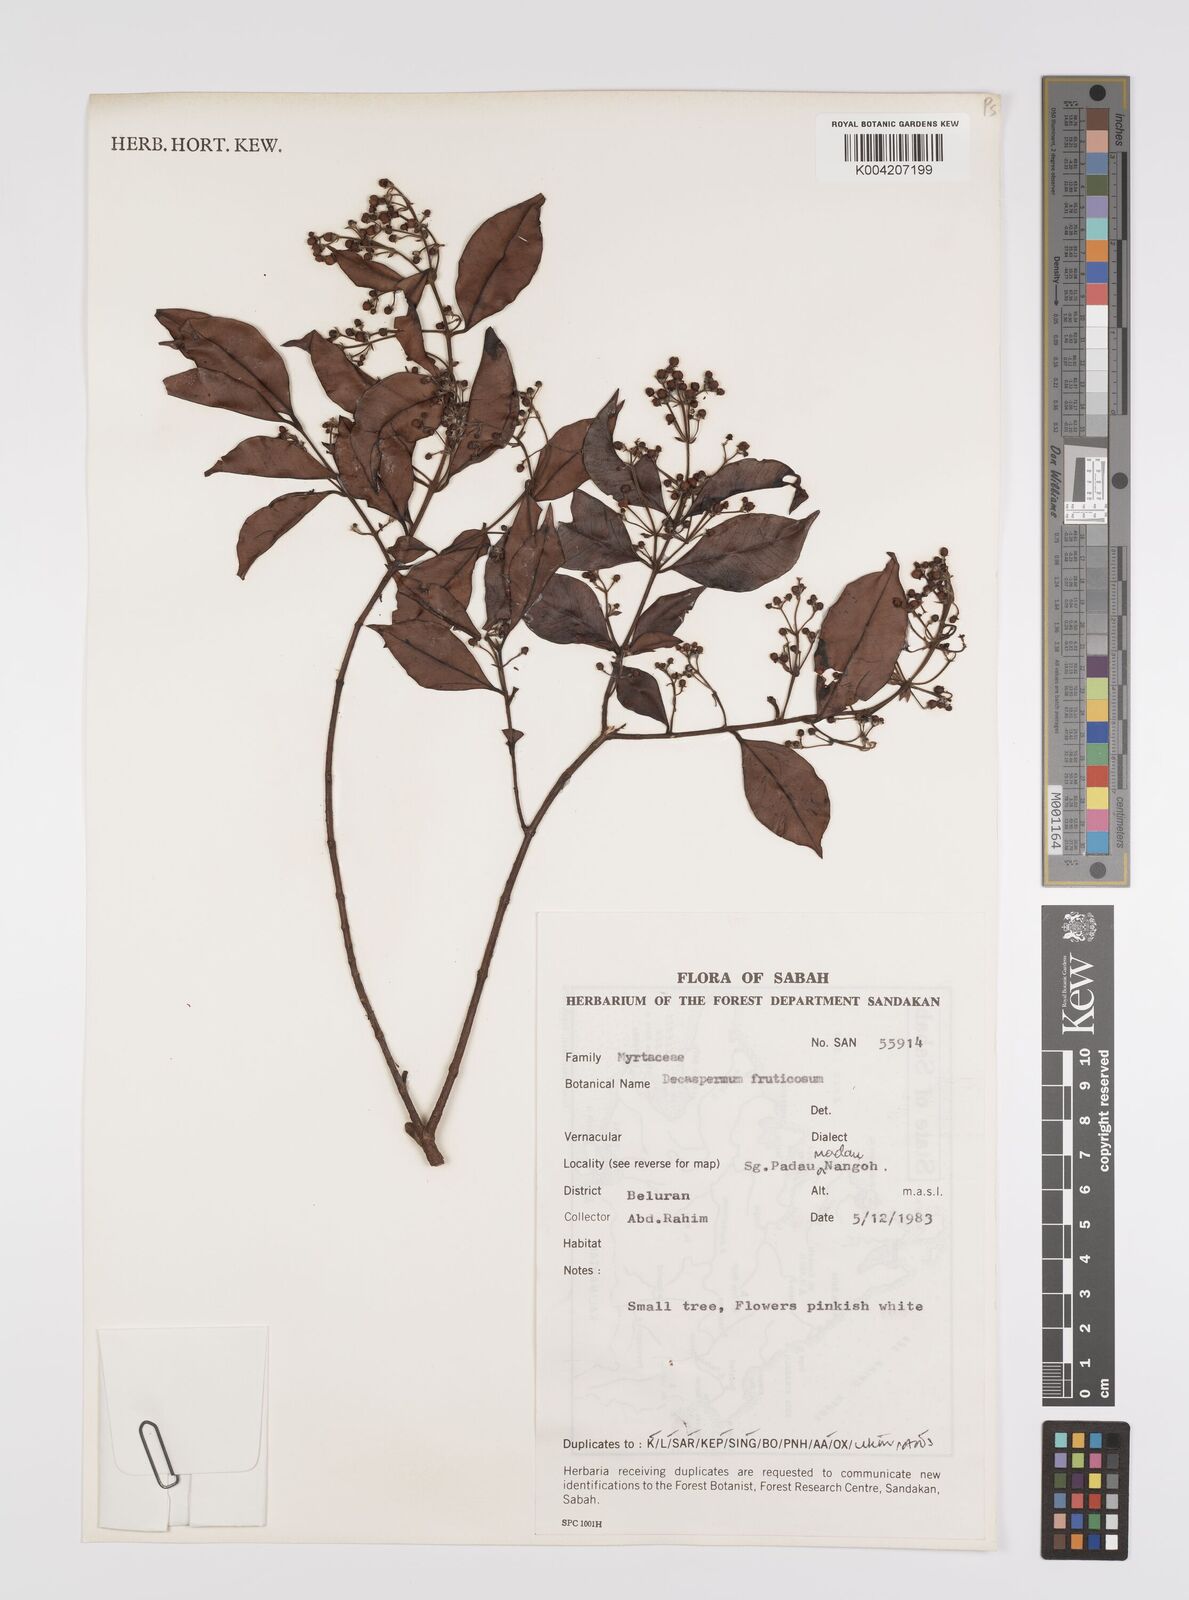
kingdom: Plantae
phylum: Tracheophyta
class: Magnoliopsida
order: Myrtales
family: Myrtaceae
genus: Decaspermum
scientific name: Decaspermum parviflorum
